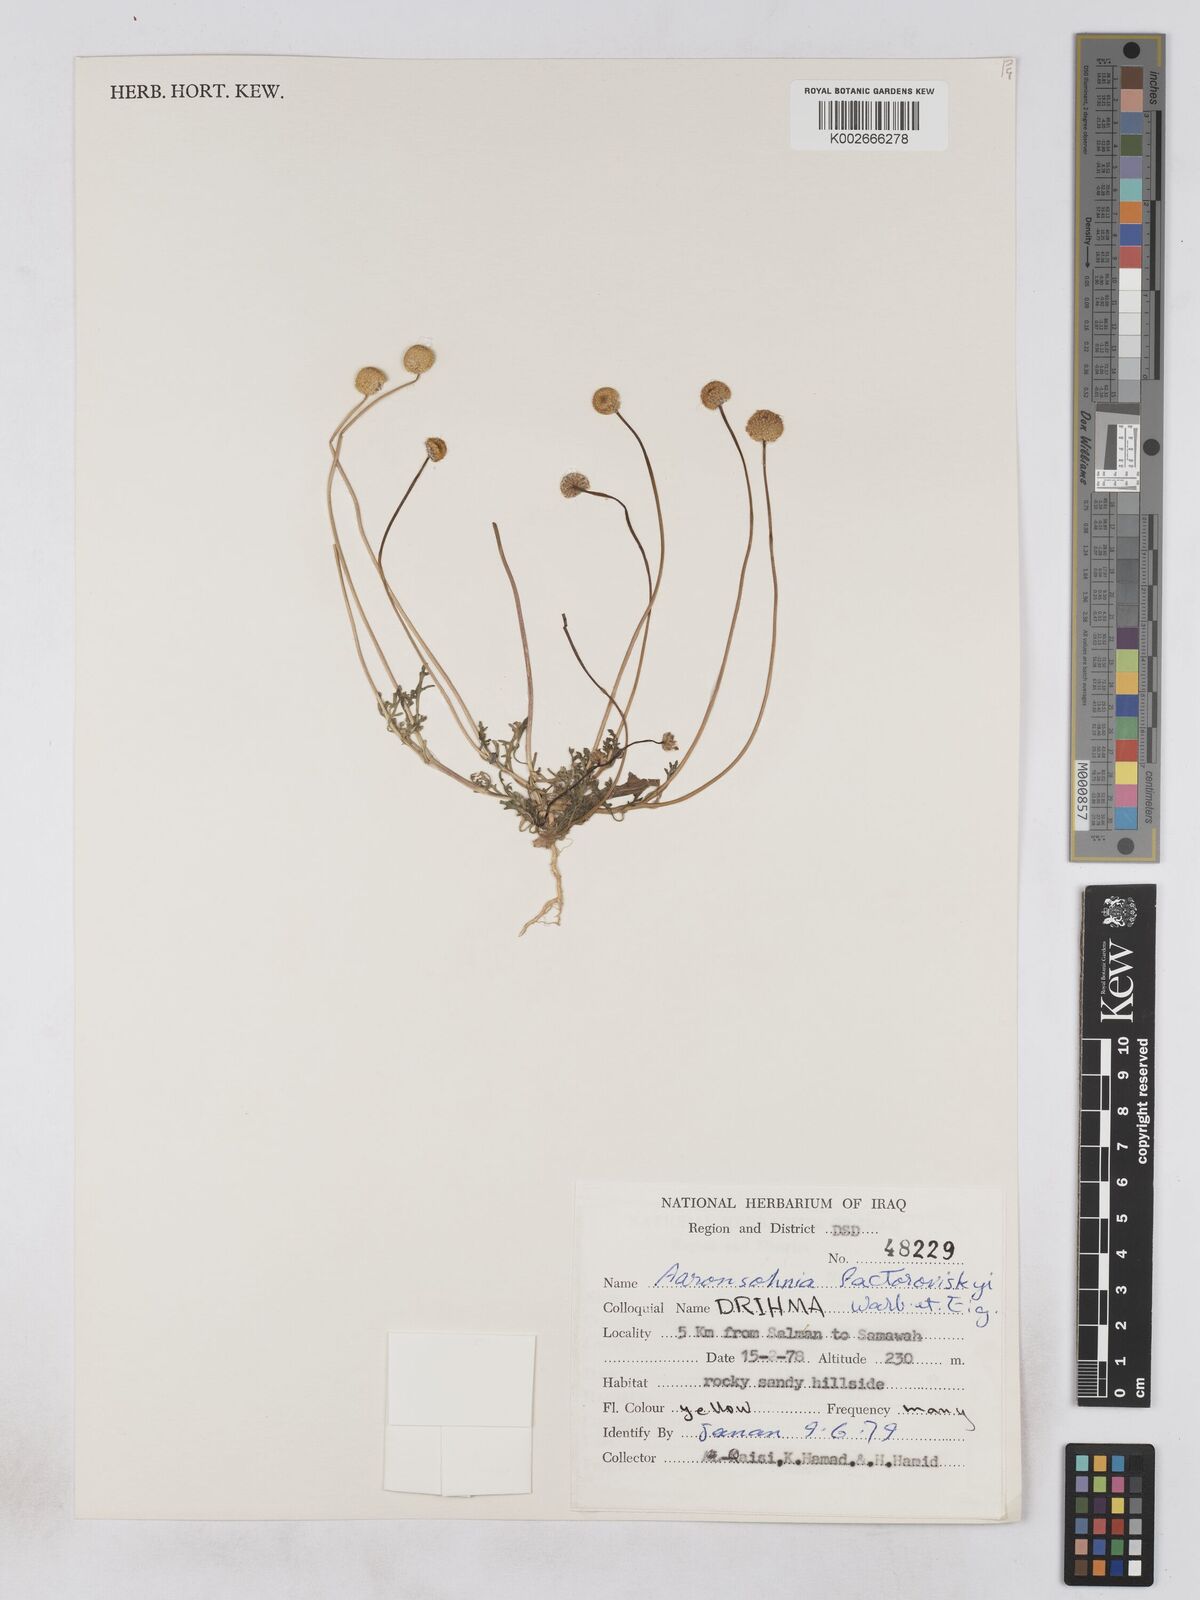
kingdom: Plantae
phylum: Tracheophyta
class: Magnoliopsida
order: Asterales
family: Asteraceae
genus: Otoglyphis
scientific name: Otoglyphis factorovskyi
